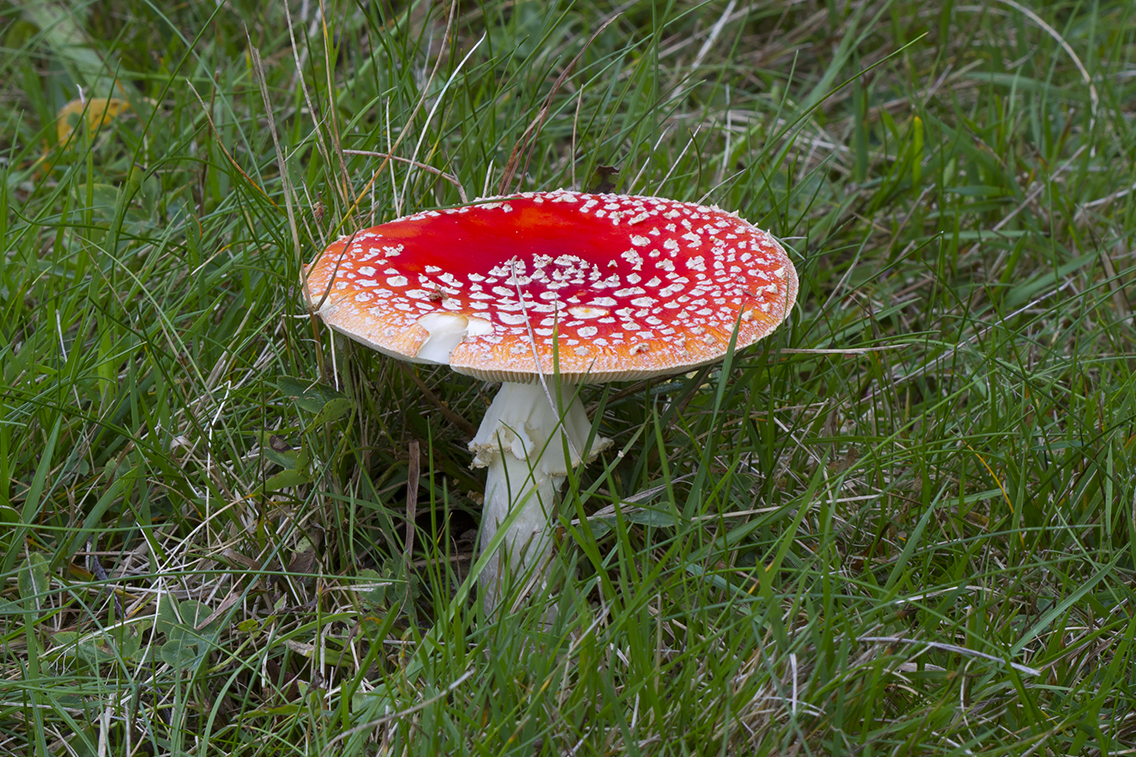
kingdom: Fungi
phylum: Basidiomycota
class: Agaricomycetes
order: Agaricales
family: Amanitaceae
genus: Amanita
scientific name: Amanita muscaria
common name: rød fluesvamp
